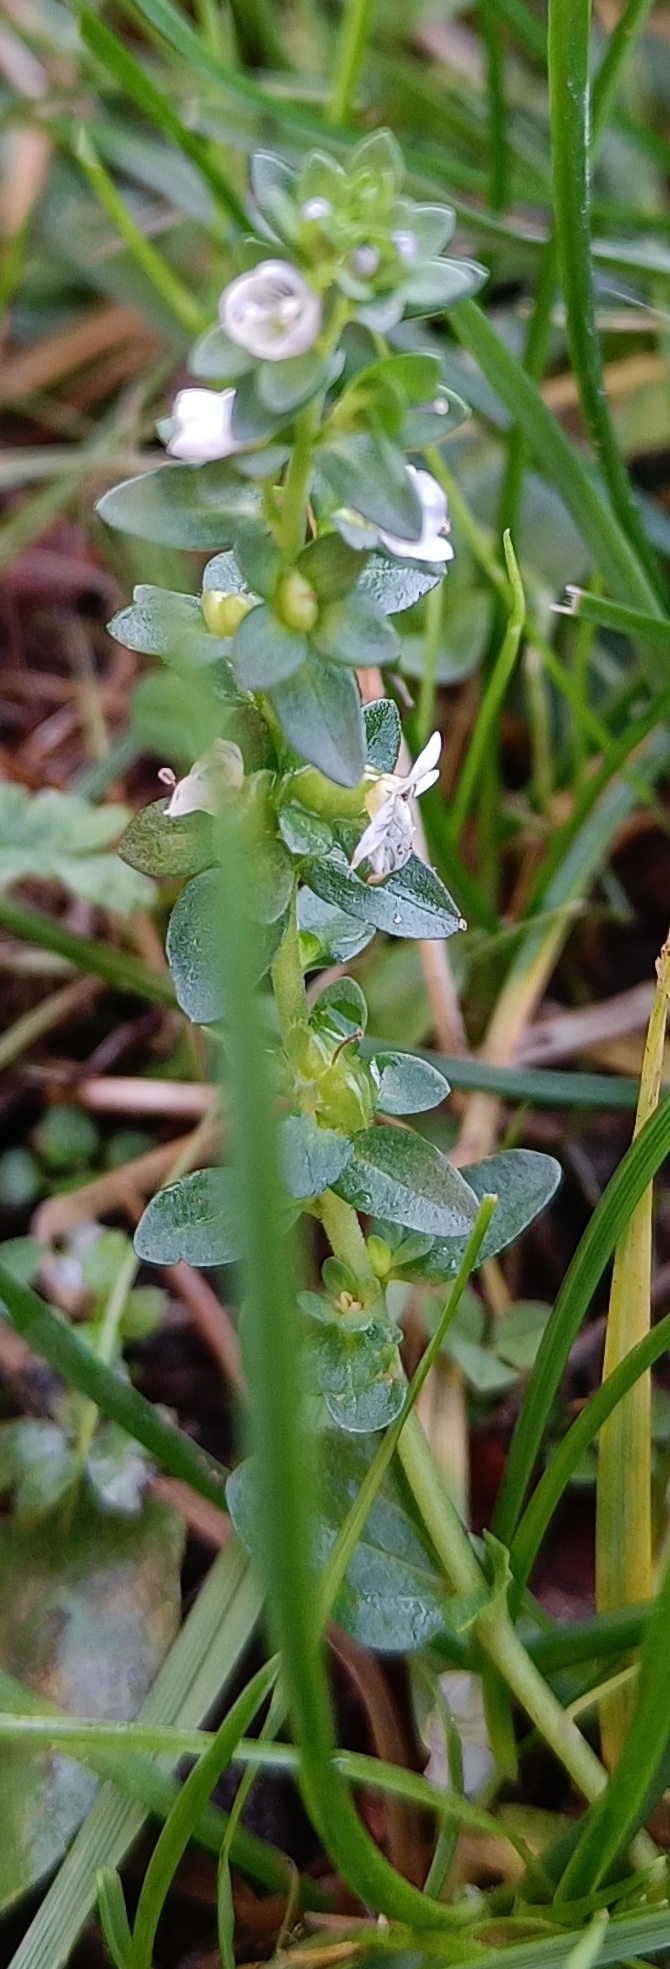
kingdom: Plantae
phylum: Tracheophyta
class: Magnoliopsida
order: Lamiales
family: Plantaginaceae
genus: Veronica
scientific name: Veronica serpyllifolia
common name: Glat ærenpris
